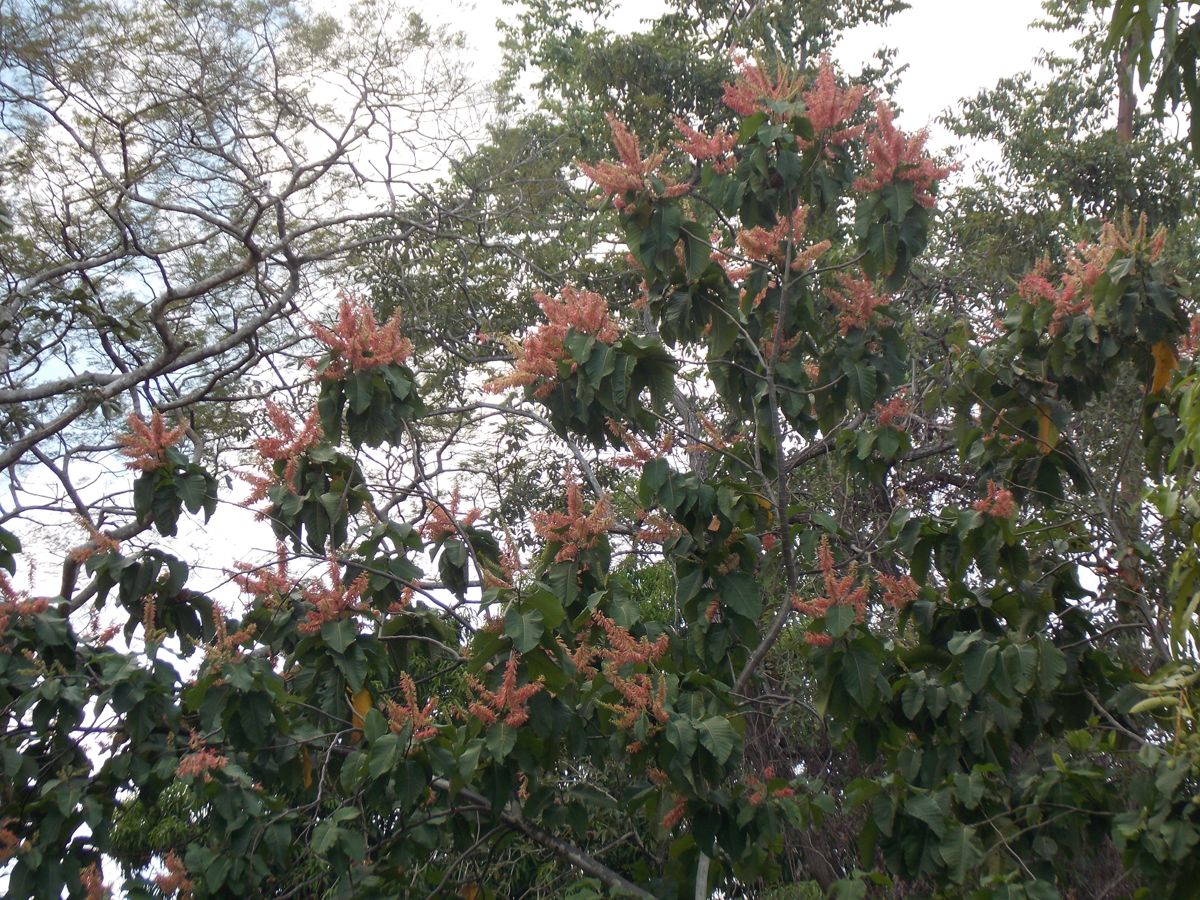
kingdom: Plantae
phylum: Tracheophyta
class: Magnoliopsida
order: Caryophyllales
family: Polygonaceae
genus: Triplaris
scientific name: Triplaris melaenodendron
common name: Long john
